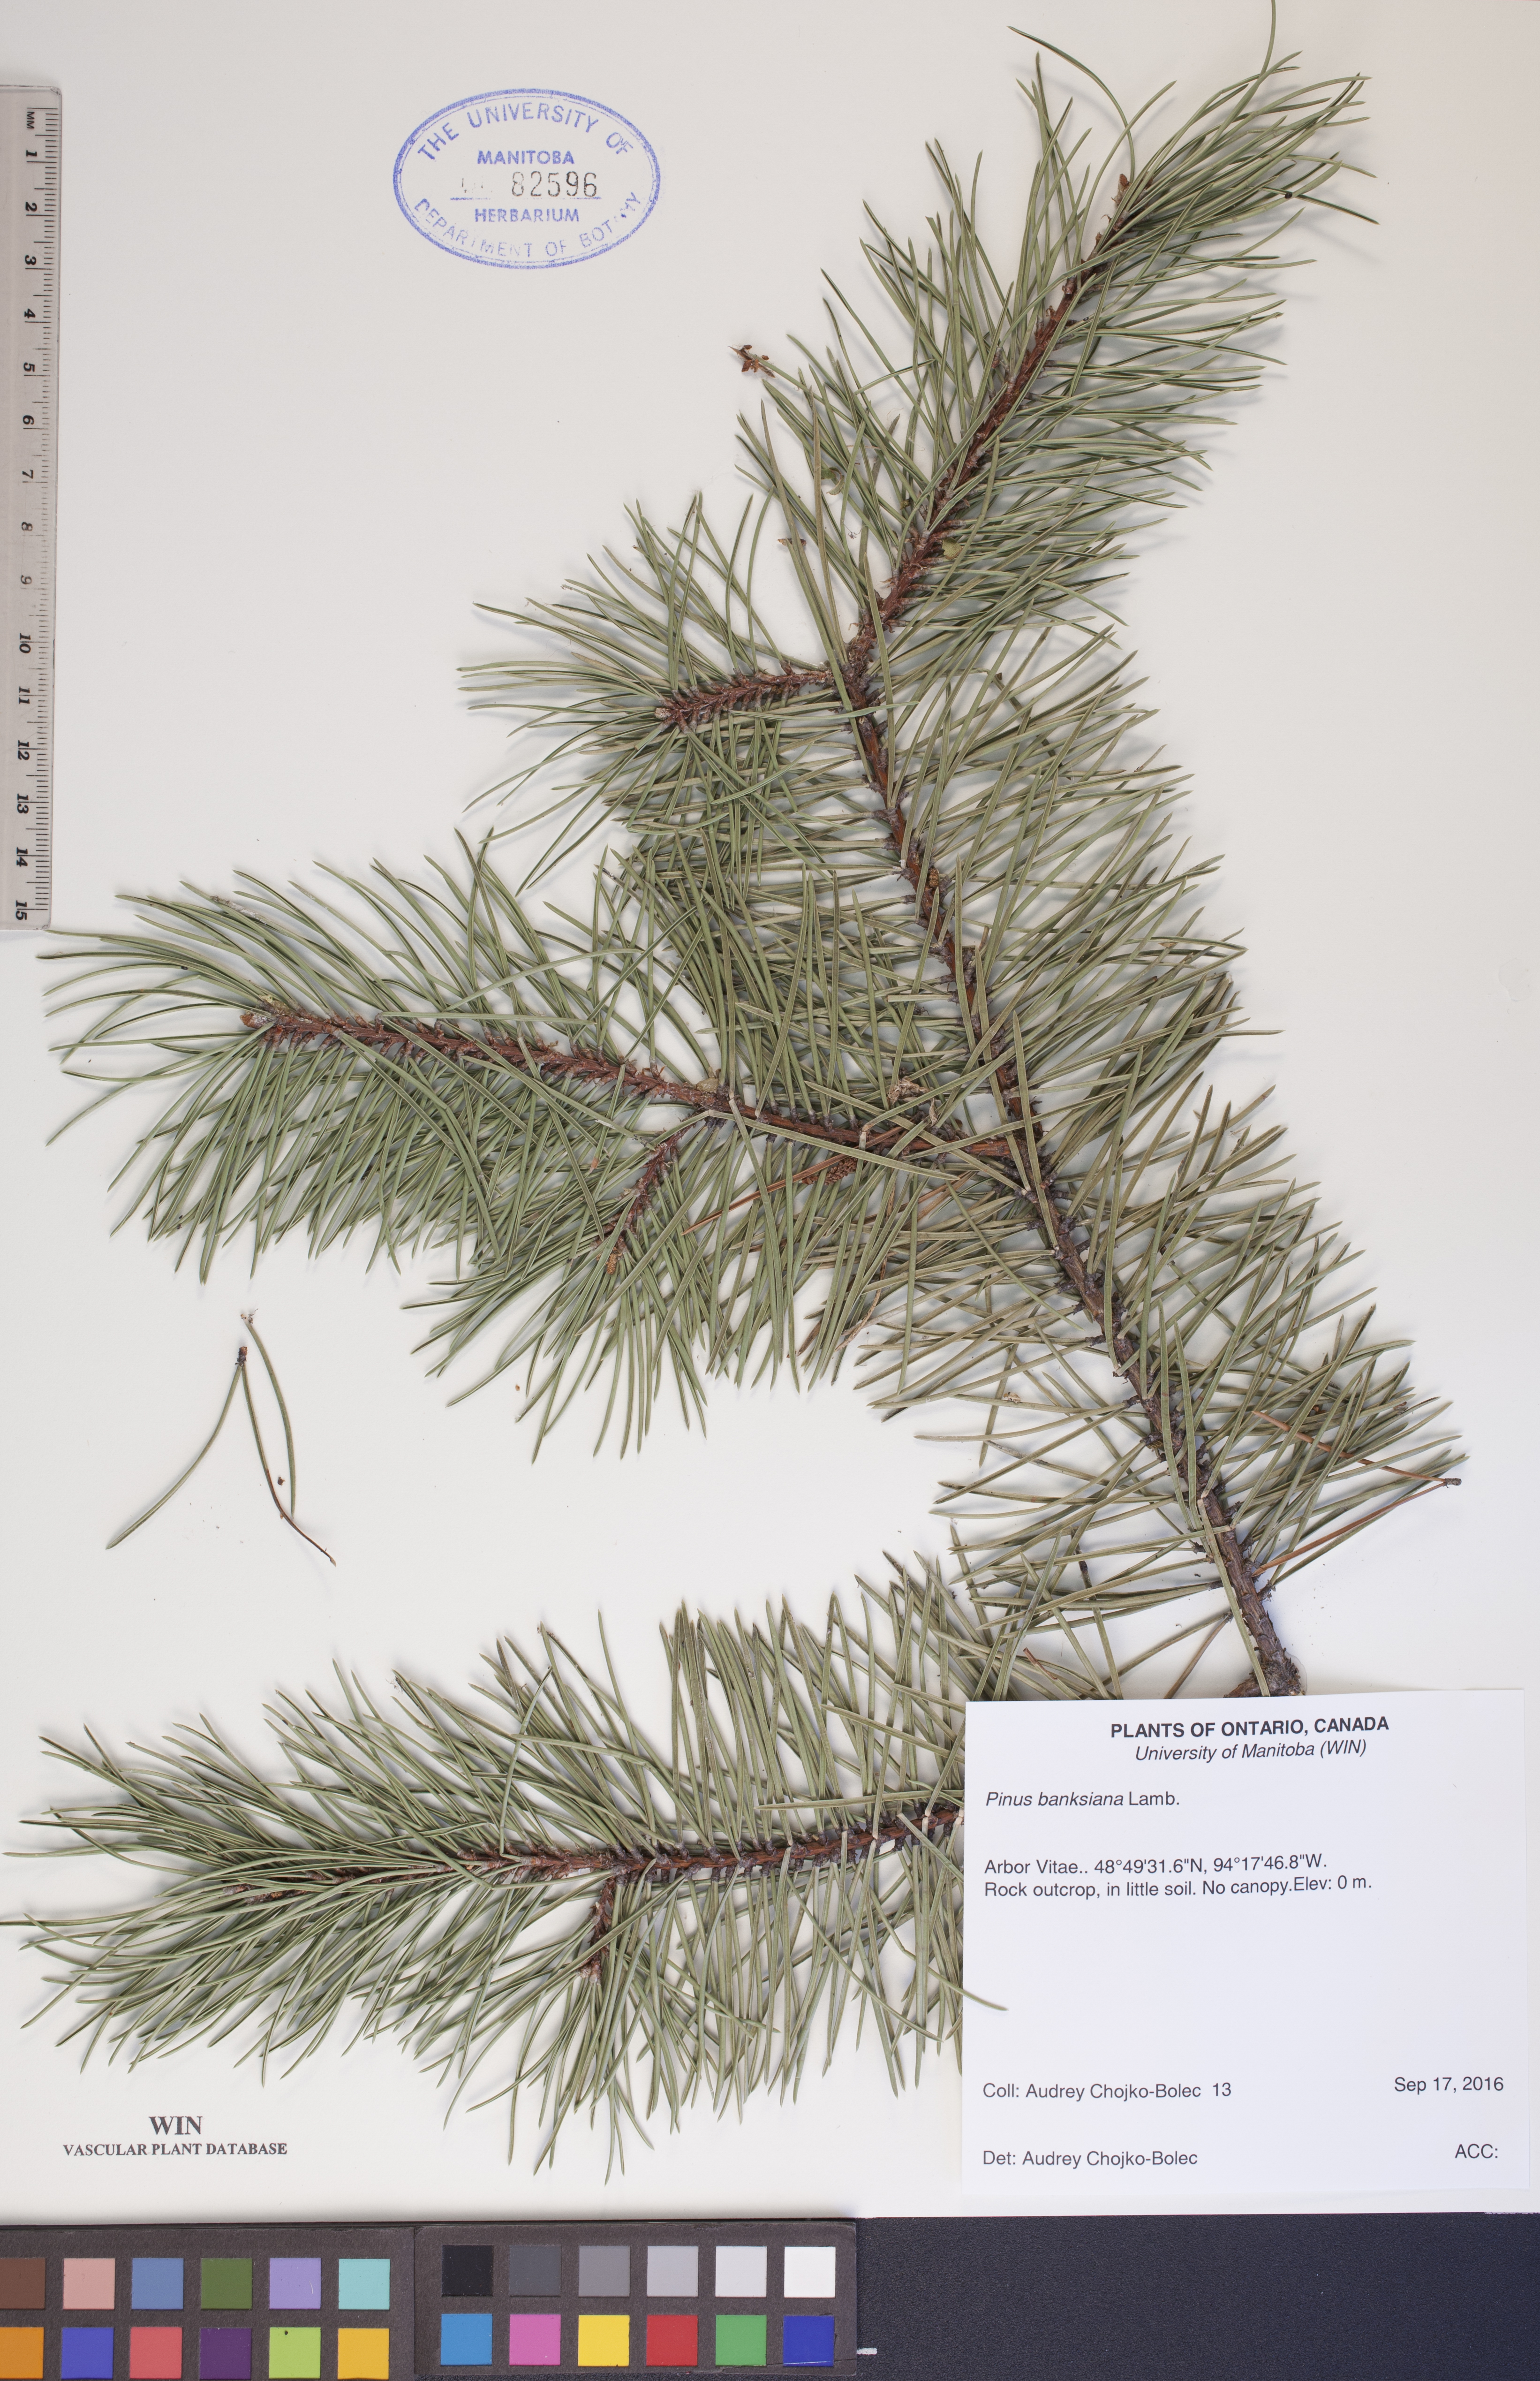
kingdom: Plantae
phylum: Tracheophyta
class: Pinopsida
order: Pinales
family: Pinaceae
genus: Pinus
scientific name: Pinus banksiana
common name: Jack pine
